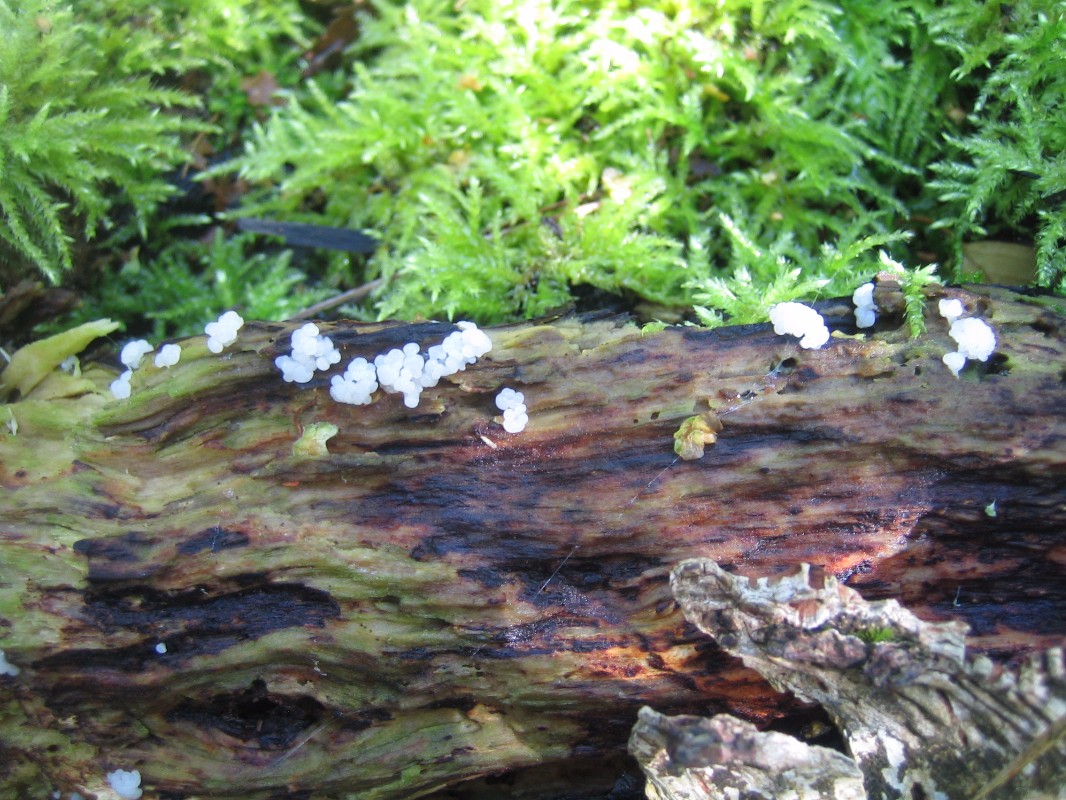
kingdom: Protozoa
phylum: Mycetozoa
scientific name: Mycetozoa
